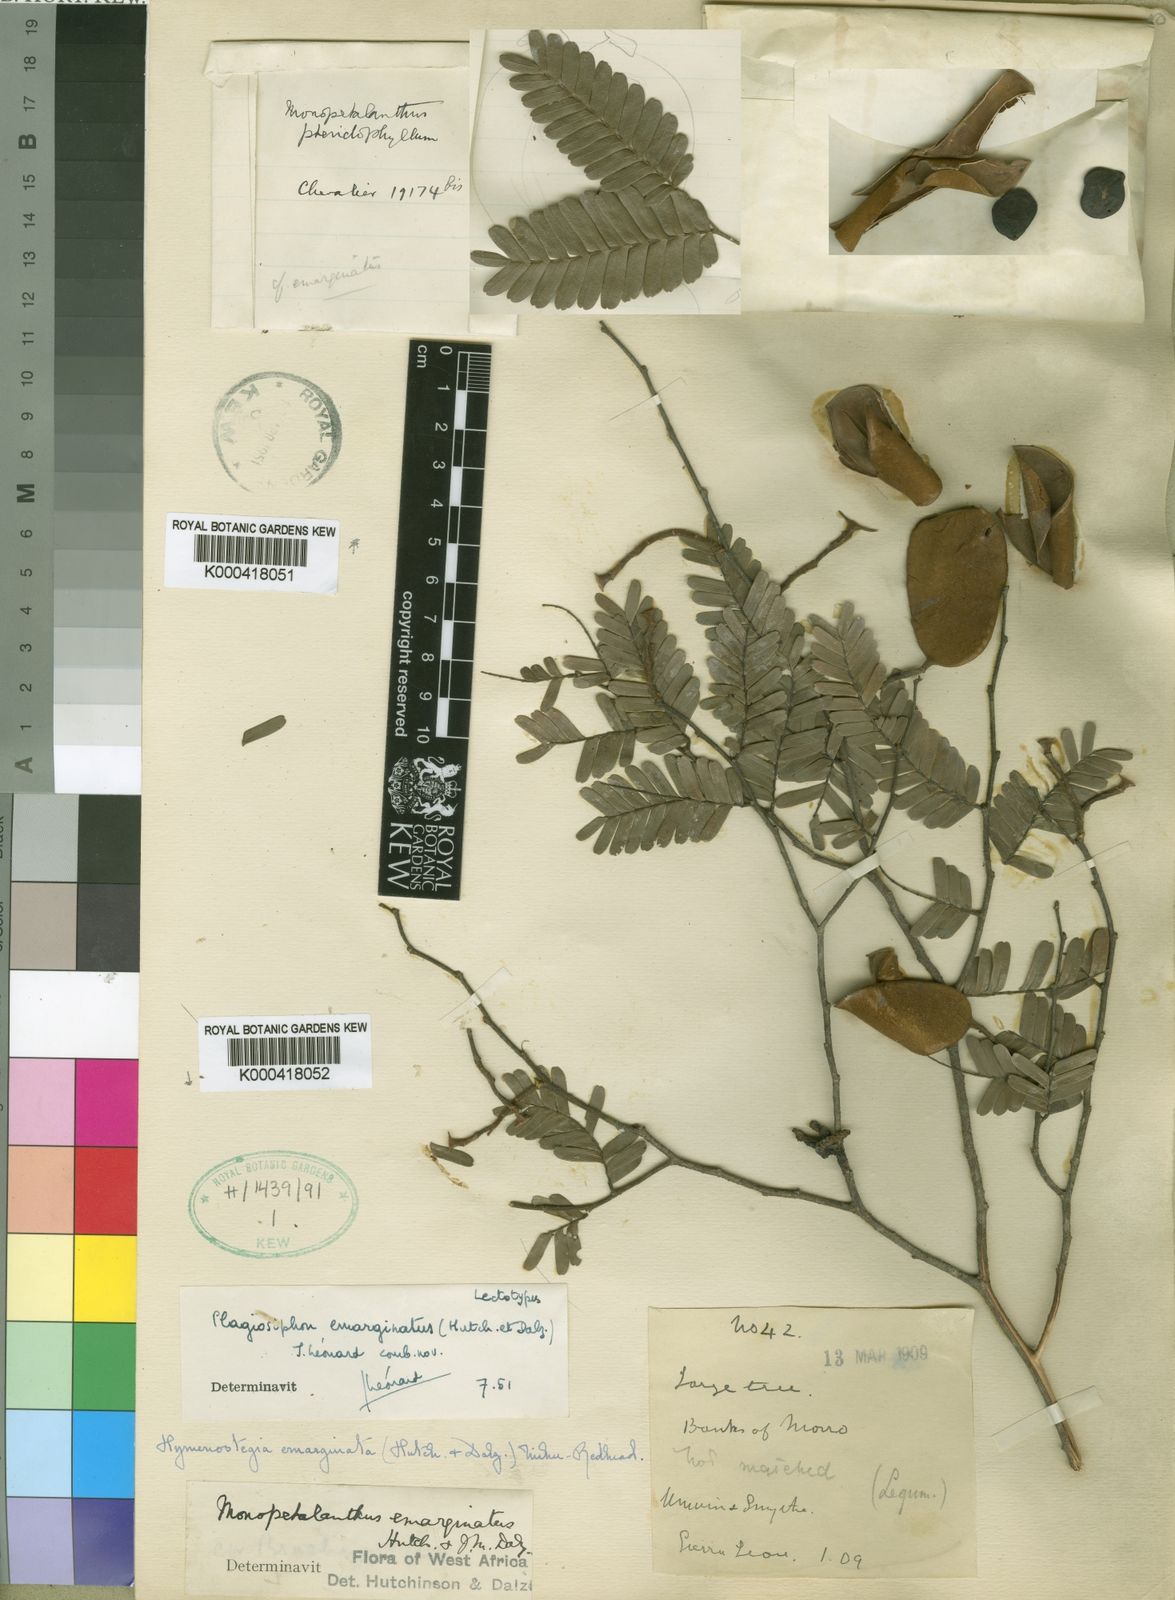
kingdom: Plantae
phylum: Tracheophyta
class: Magnoliopsida
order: Fabales
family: Fabaceae
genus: Plagiosiphon
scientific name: Plagiosiphon
